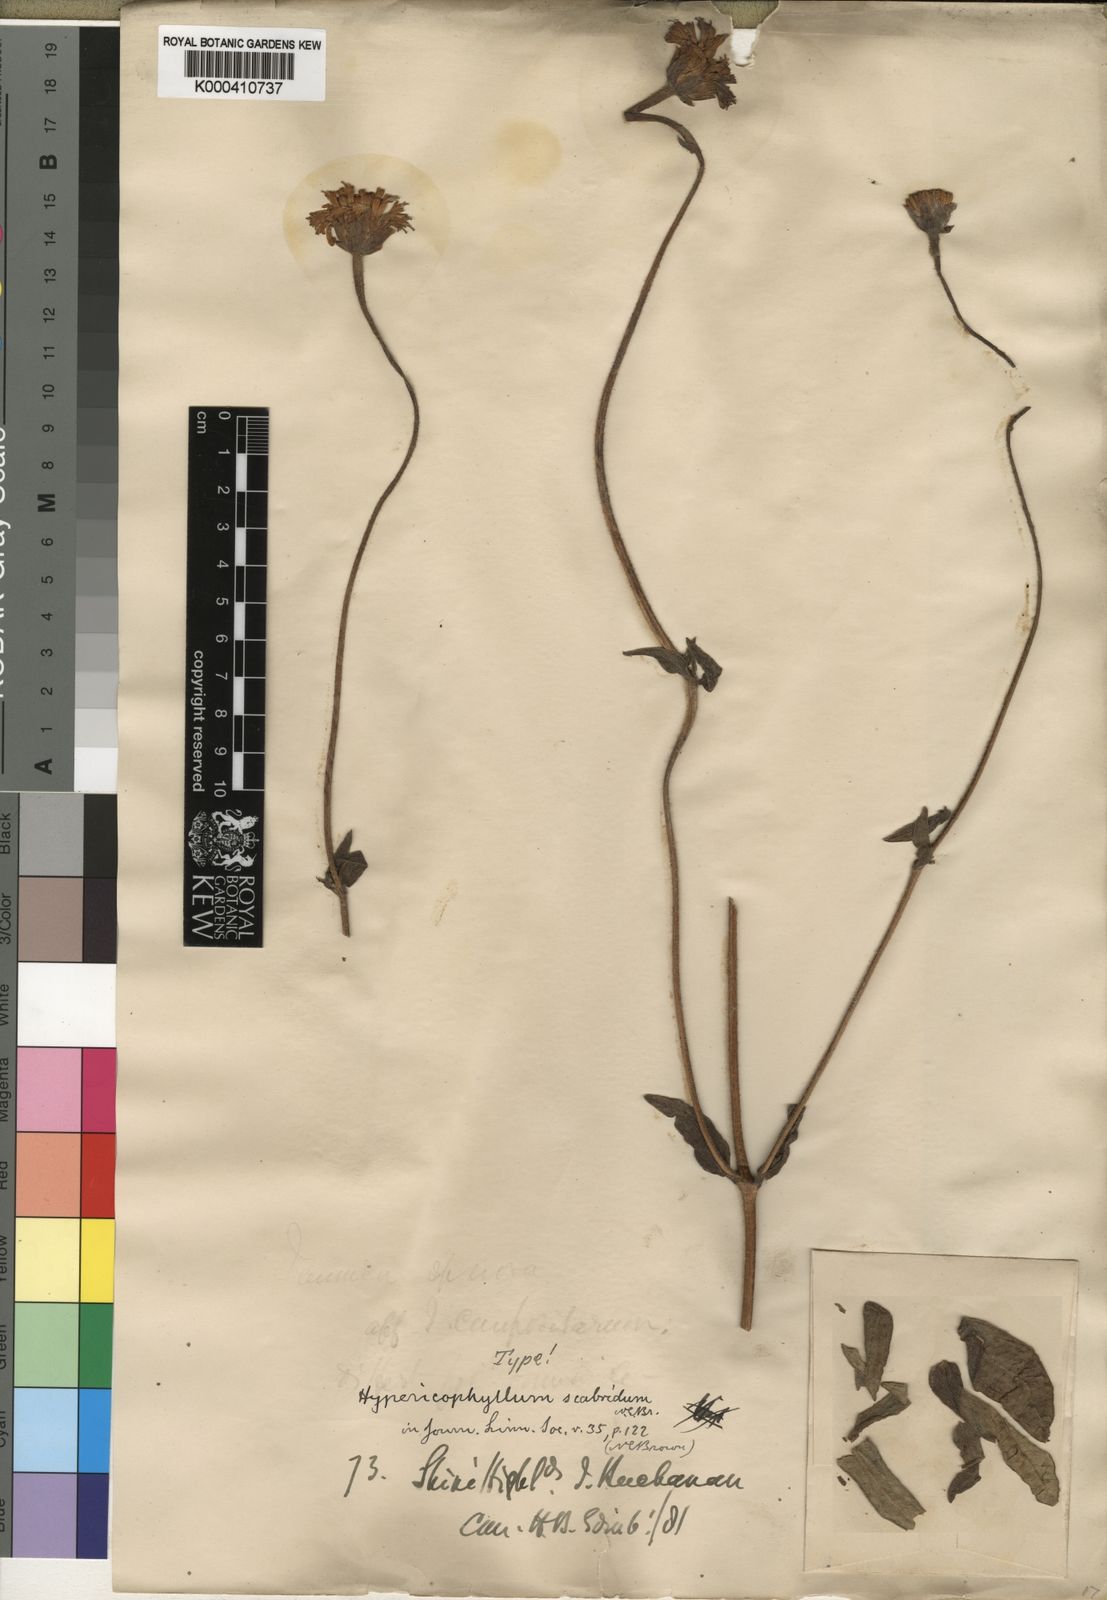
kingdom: Plantae
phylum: Tracheophyta
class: Magnoliopsida
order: Asterales
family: Asteraceae
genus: Hypericophyllum
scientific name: Hypericophyllum angolense
